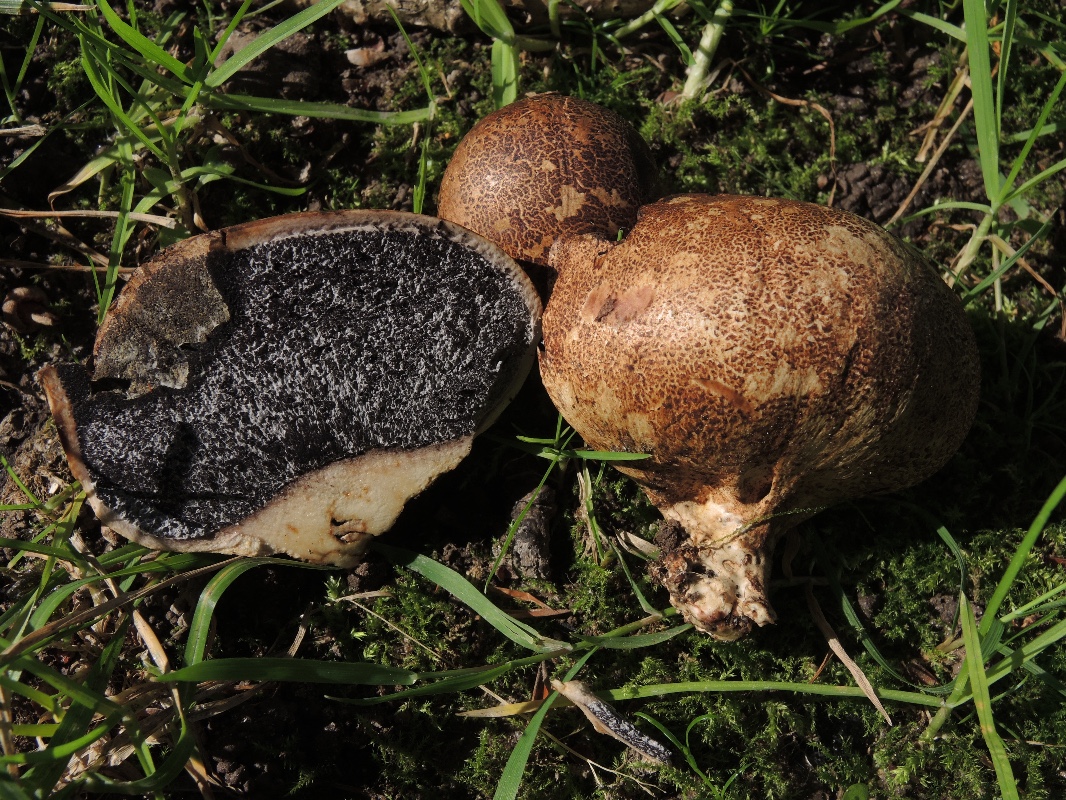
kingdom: Fungi
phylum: Basidiomycota
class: Agaricomycetes
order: Boletales
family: Sclerodermataceae
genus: Scleroderma
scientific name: Scleroderma cepa
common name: rødbrun bruskbold
